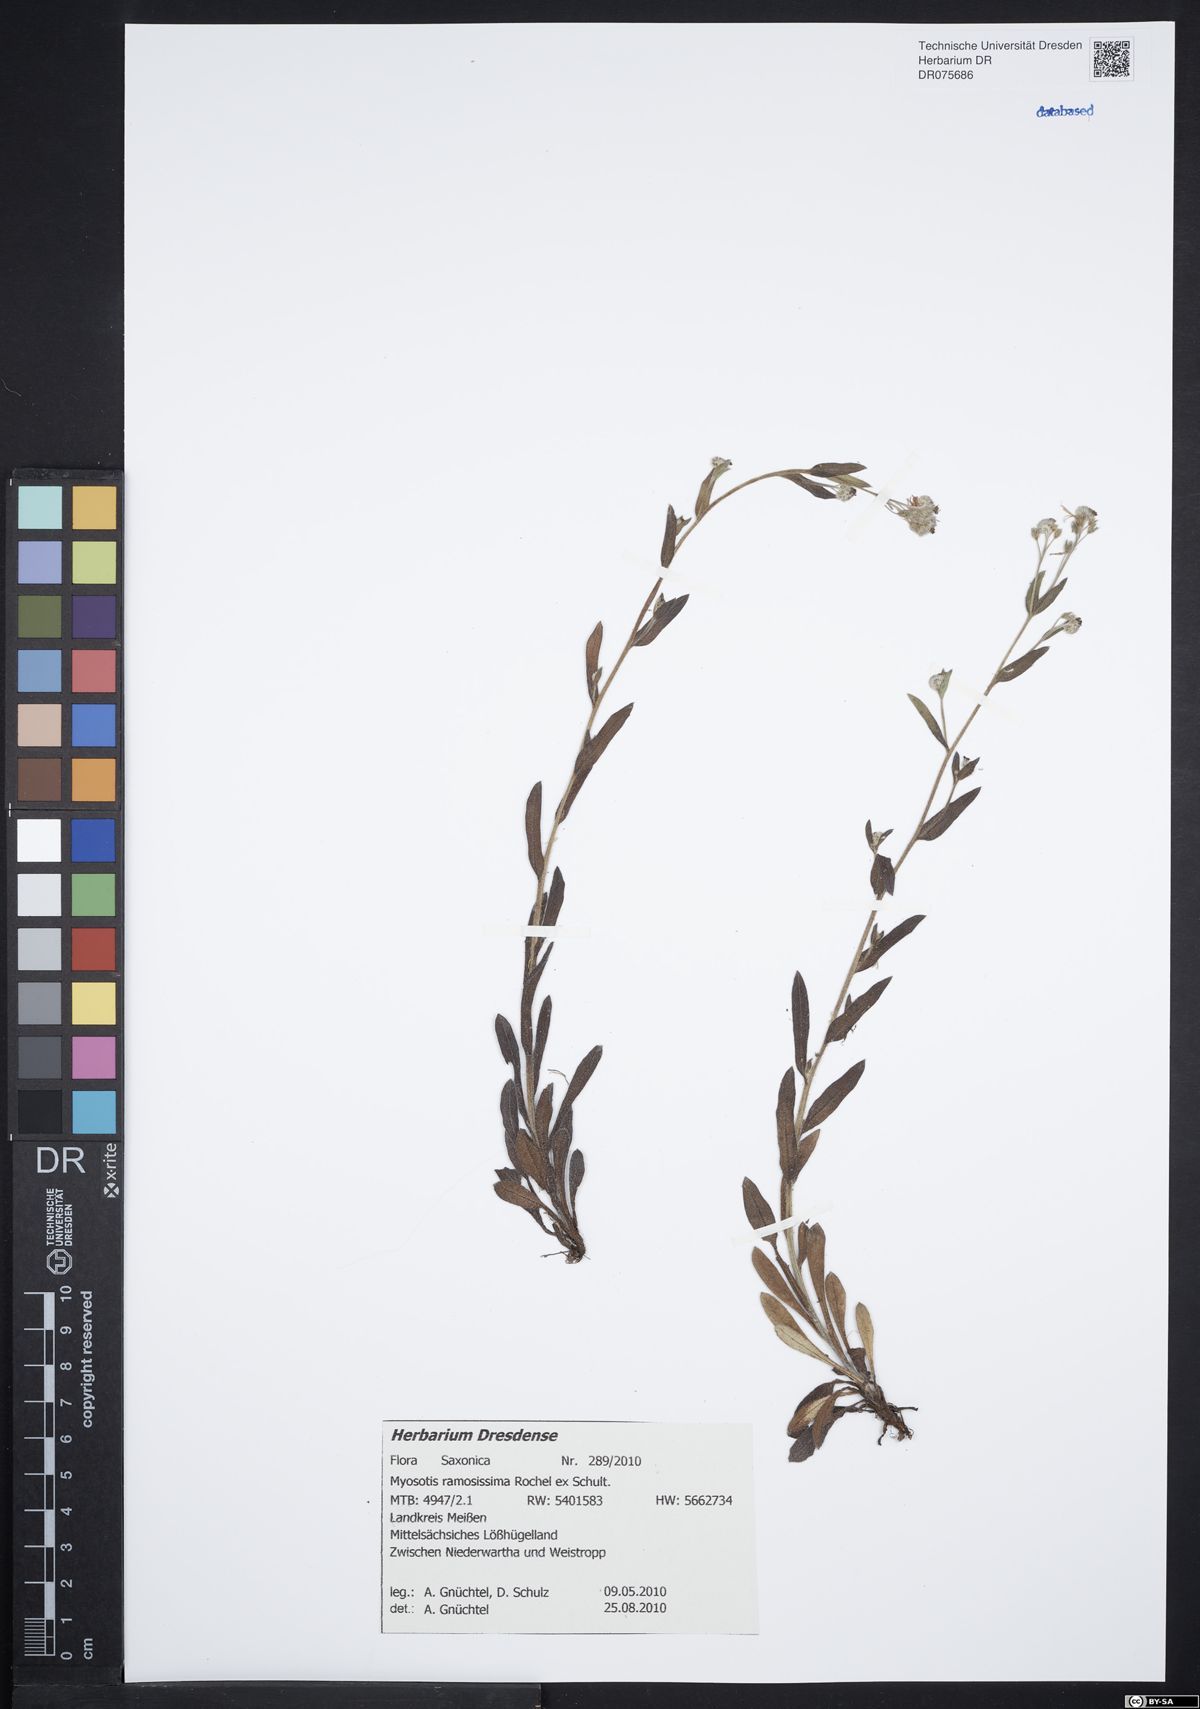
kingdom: Plantae
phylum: Tracheophyta
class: Magnoliopsida
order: Boraginales
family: Boraginaceae
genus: Myosotis
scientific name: Myosotis ramosissima
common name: Early forget-me-not
